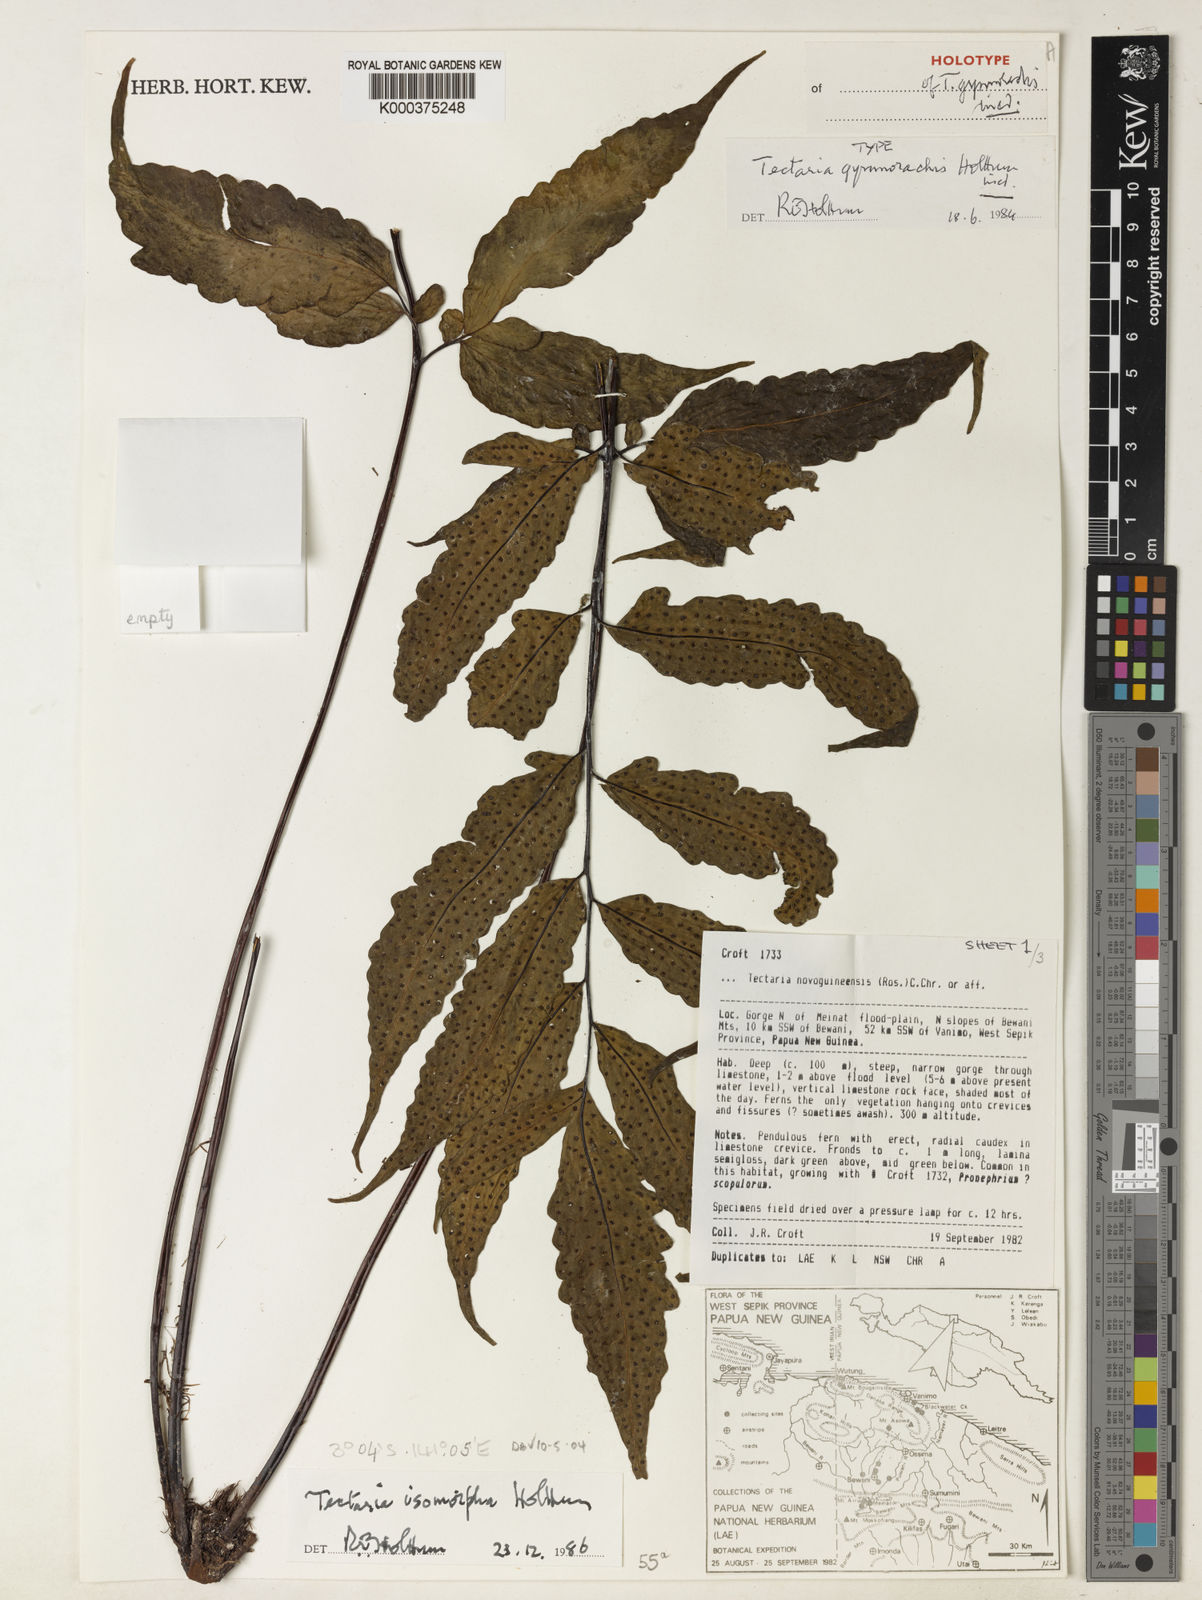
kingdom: Plantae
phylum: Tracheophyta
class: Polypodiopsida
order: Polypodiales
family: Tectariaceae
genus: Tectaria
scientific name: Tectaria isomorpha
